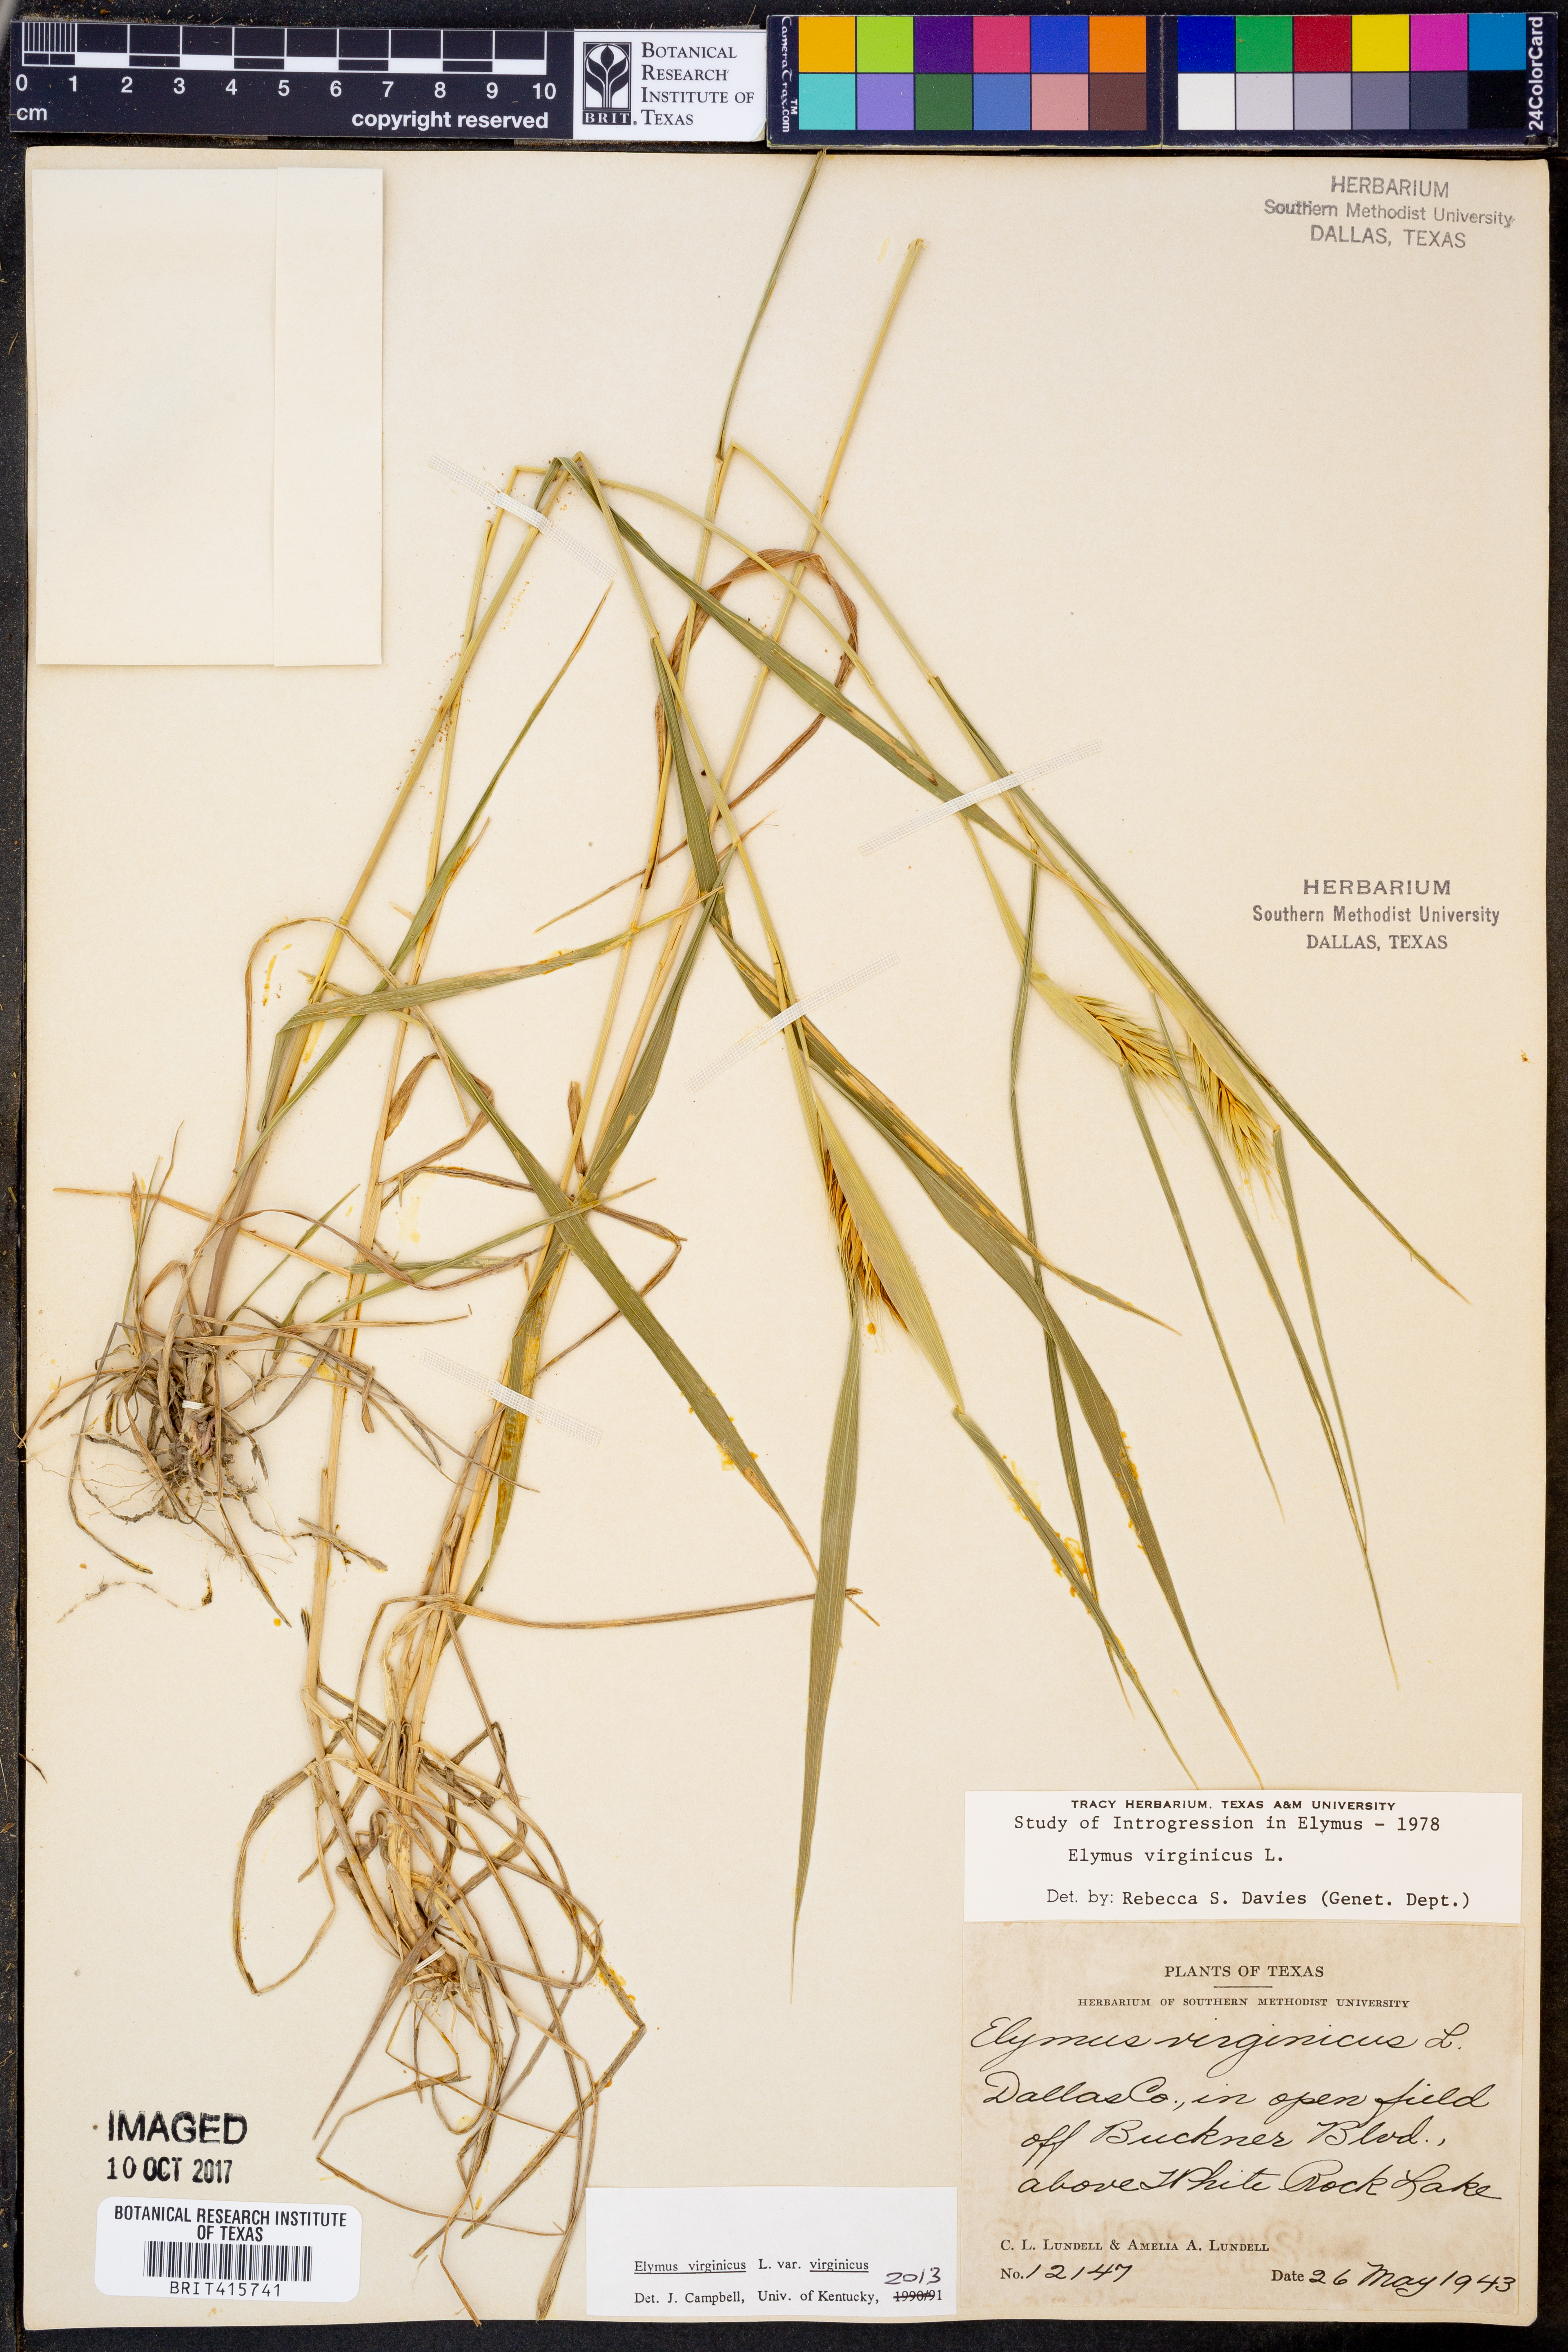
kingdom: Plantae
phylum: Tracheophyta
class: Liliopsida
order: Poales
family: Poaceae
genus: Elymus
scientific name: Elymus virginicus
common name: Common eastern wildrye
